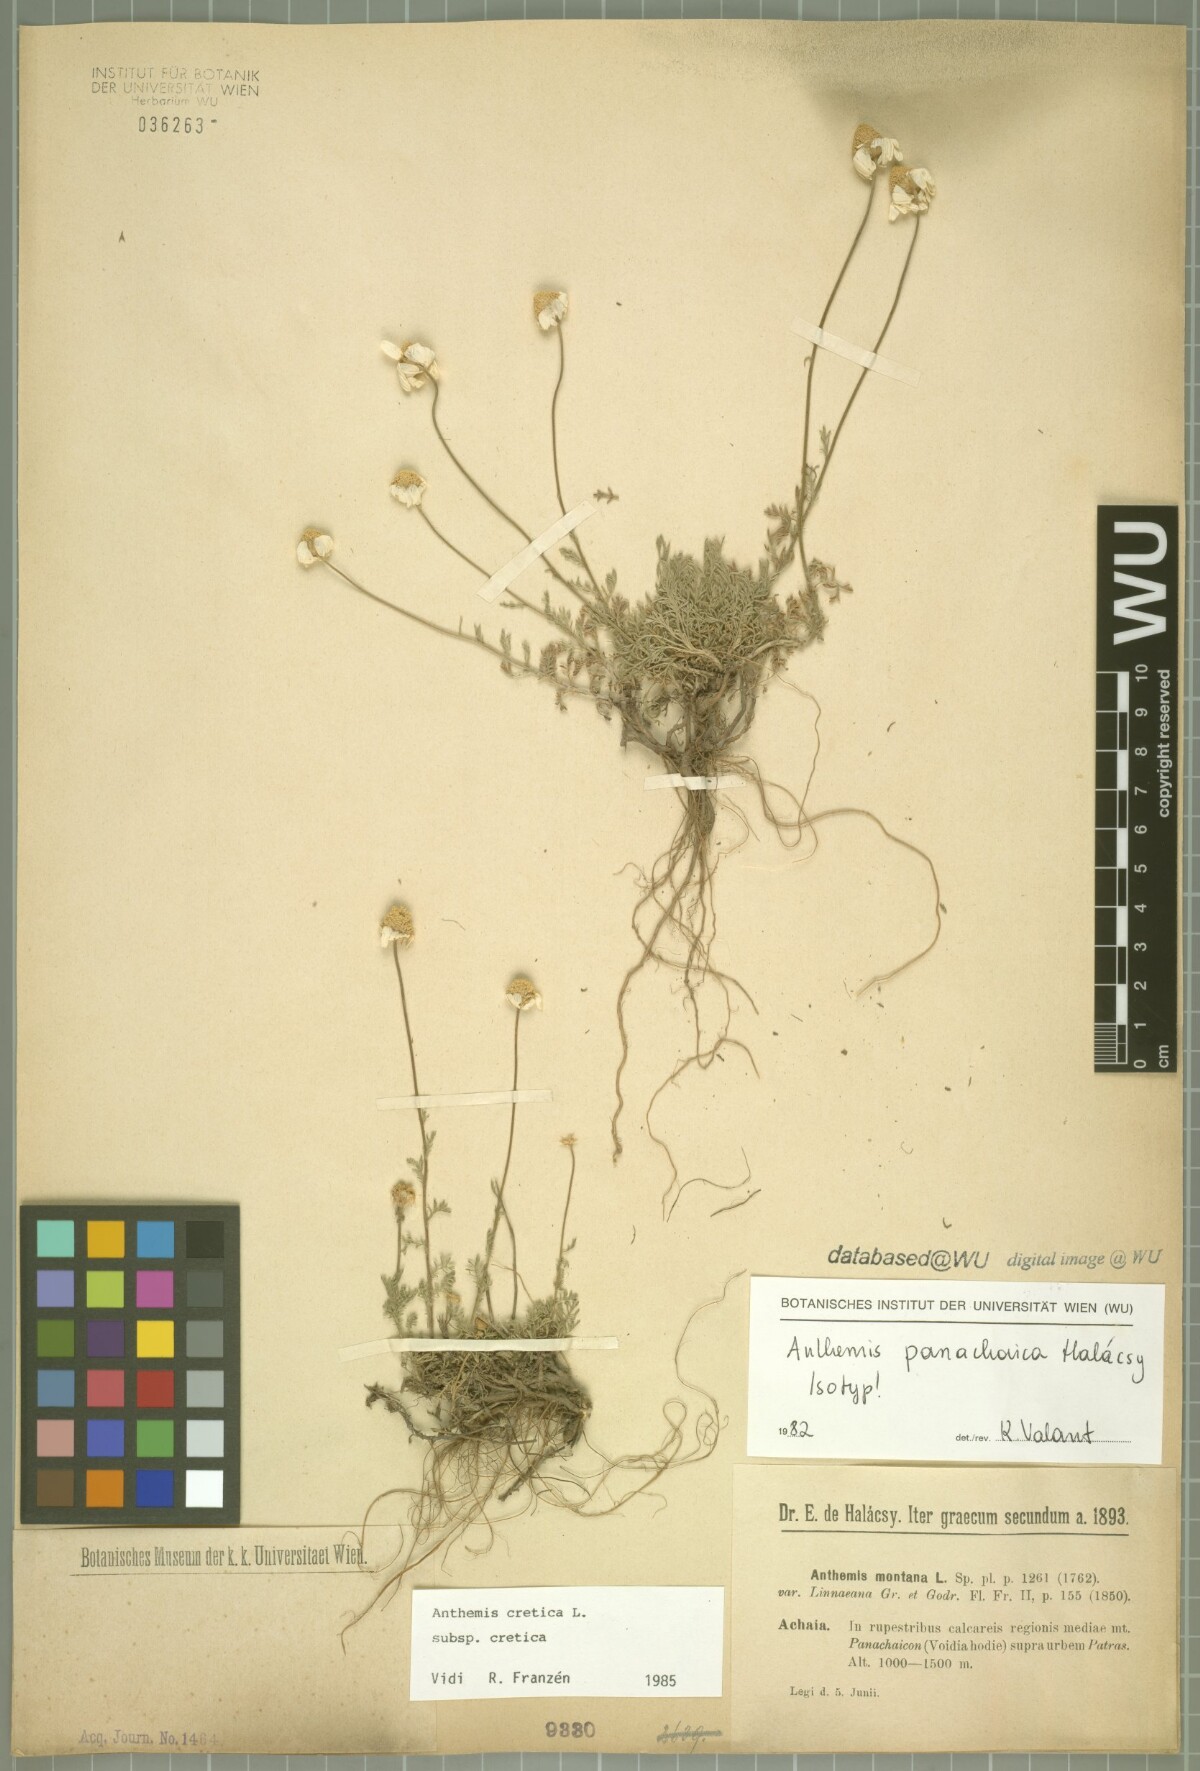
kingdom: Plantae
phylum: Tracheophyta
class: Magnoliopsida
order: Asterales
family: Asteraceae
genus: Anthemis
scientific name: Anthemis cretica
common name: Mountain dog-daisy
